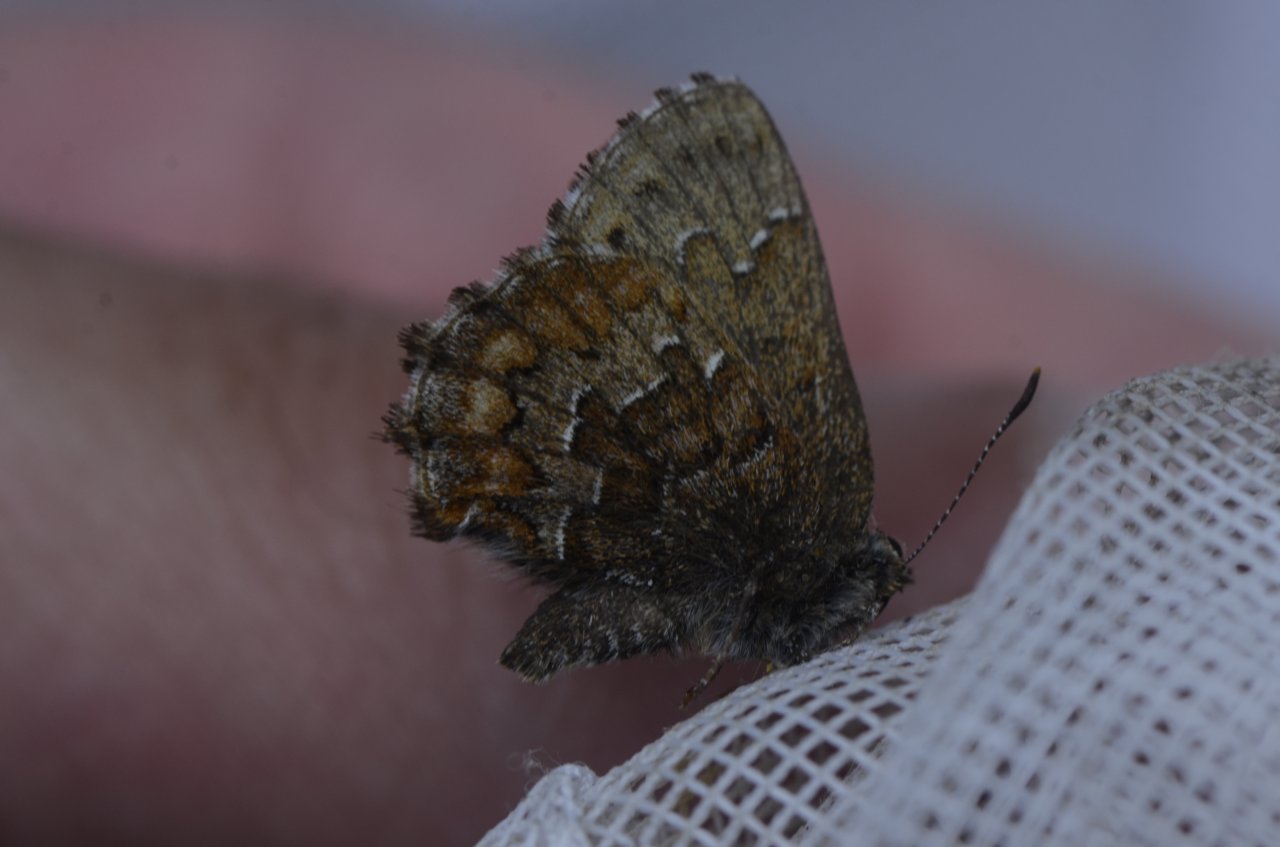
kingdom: Animalia
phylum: Arthropoda
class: Insecta
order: Lepidoptera
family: Lycaenidae
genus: Incisalia
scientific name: Incisalia niphon
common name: Eastern Pine Elfin
